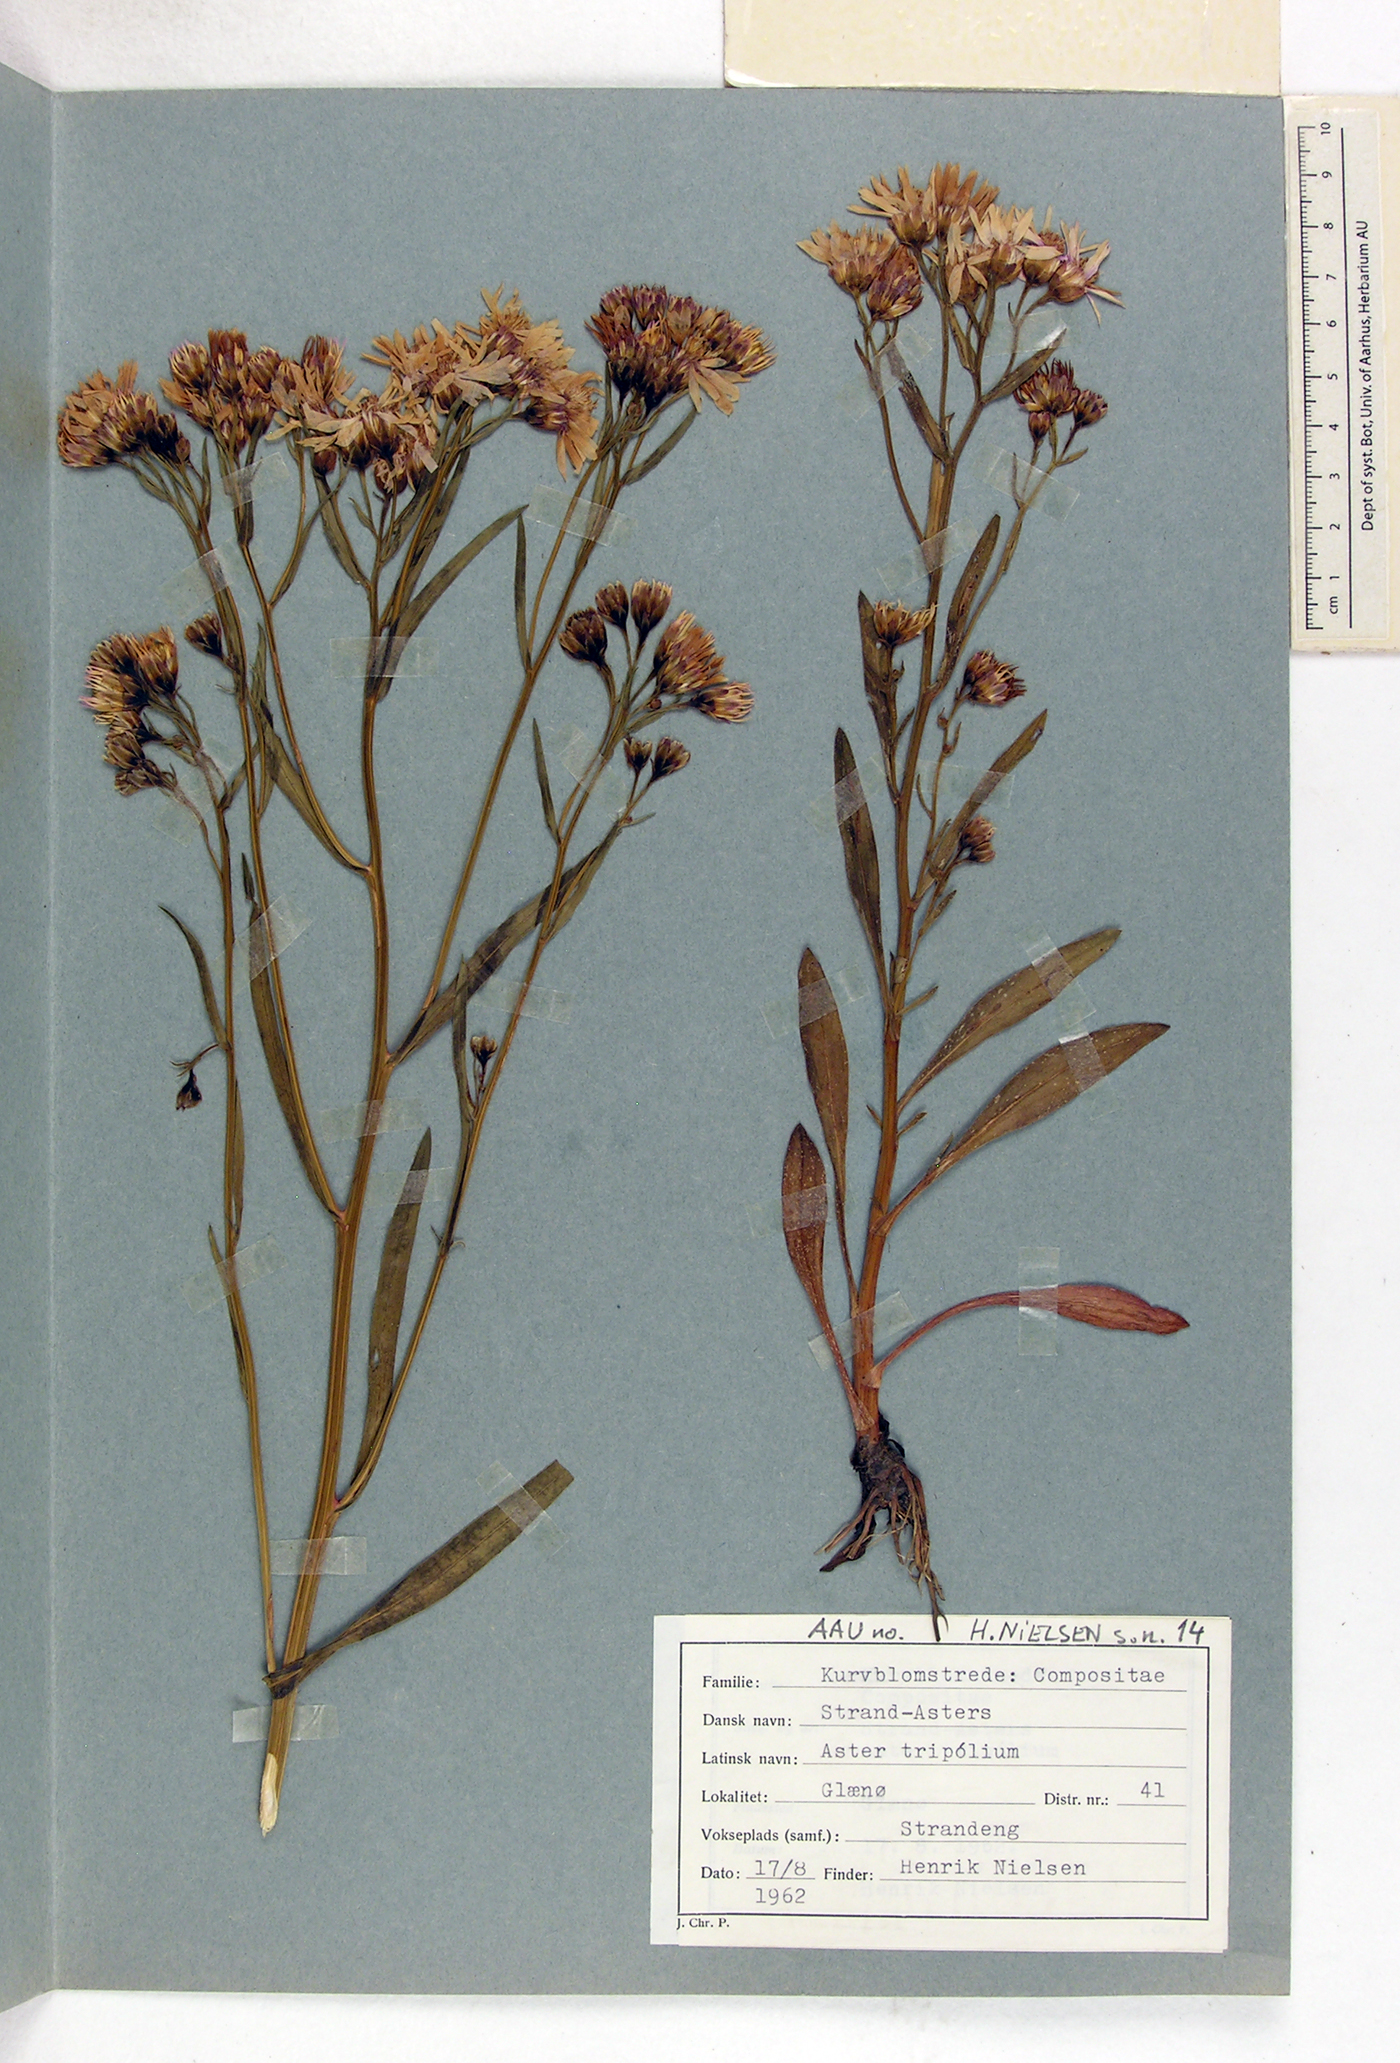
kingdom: Plantae
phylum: Tracheophyta
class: Magnoliopsida
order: Asterales
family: Asteraceae
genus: Tripolium
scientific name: Tripolium pannonicum
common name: Sea aster
